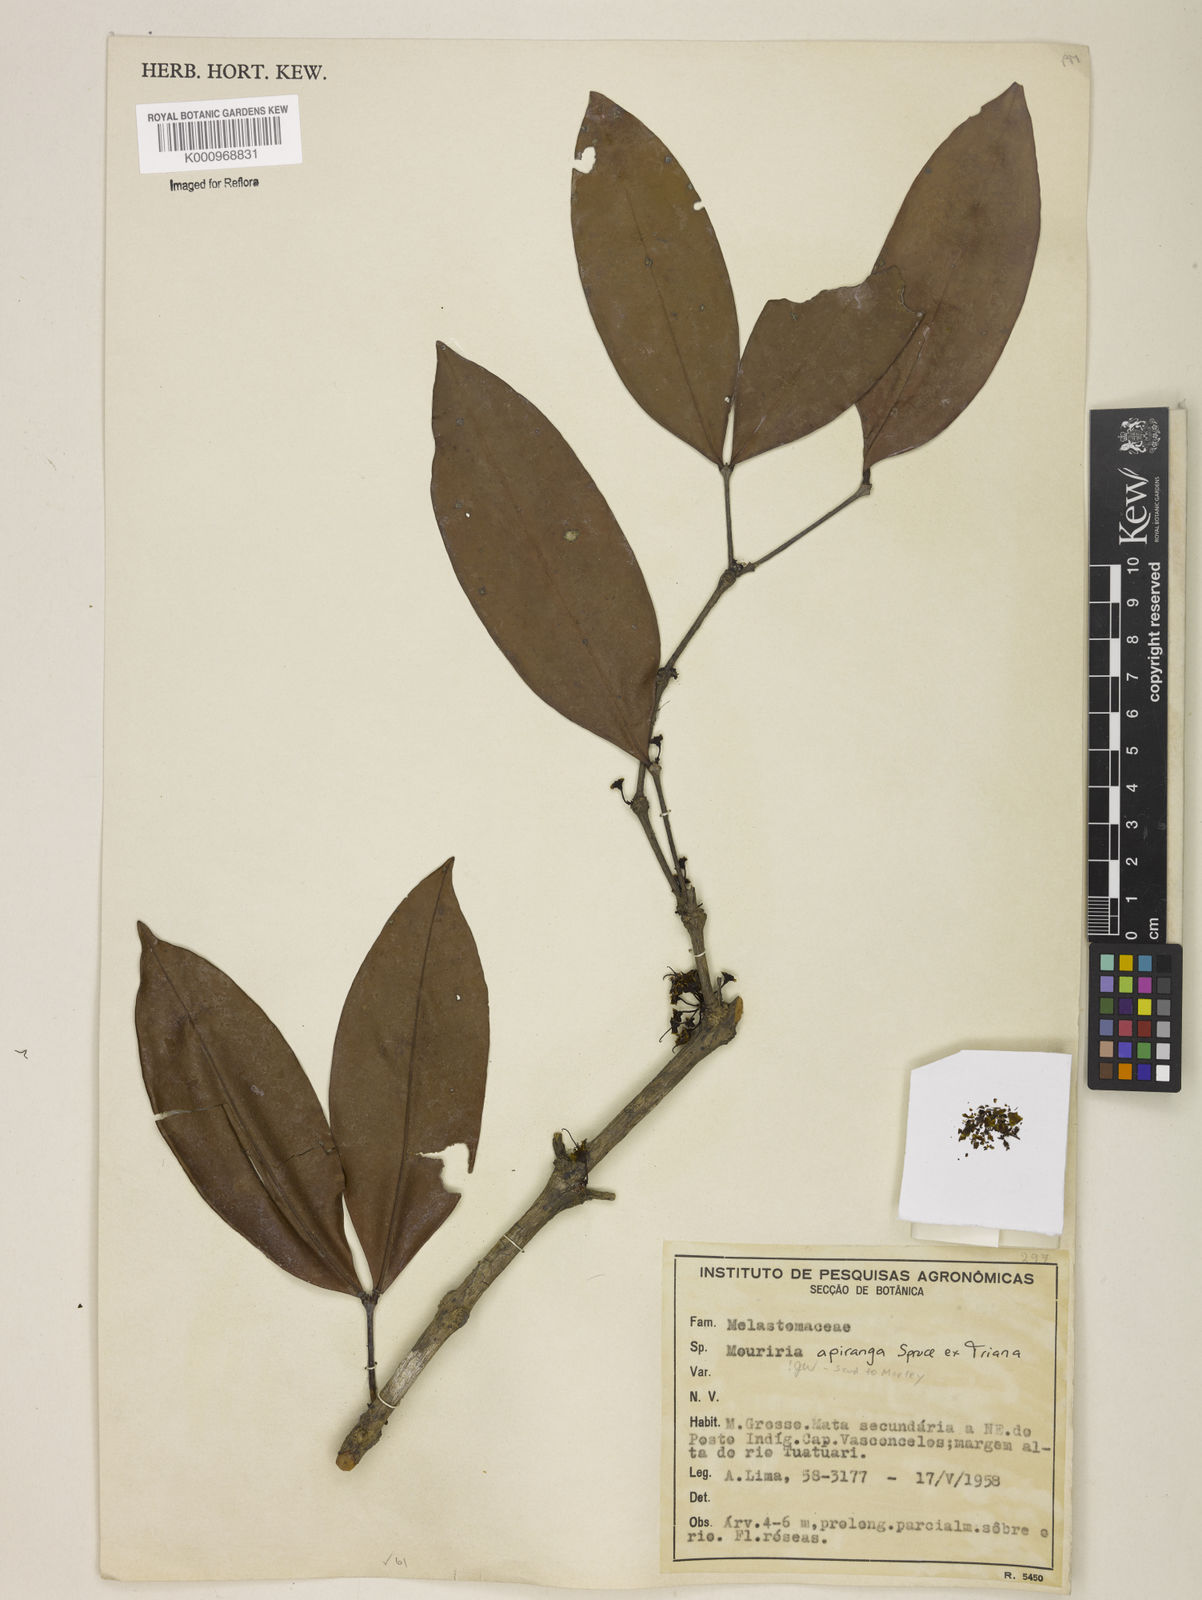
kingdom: Plantae
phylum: Tracheophyta
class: Magnoliopsida
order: Myrtales
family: Melastomataceae
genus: Mouriri
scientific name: Mouriri apiranga
